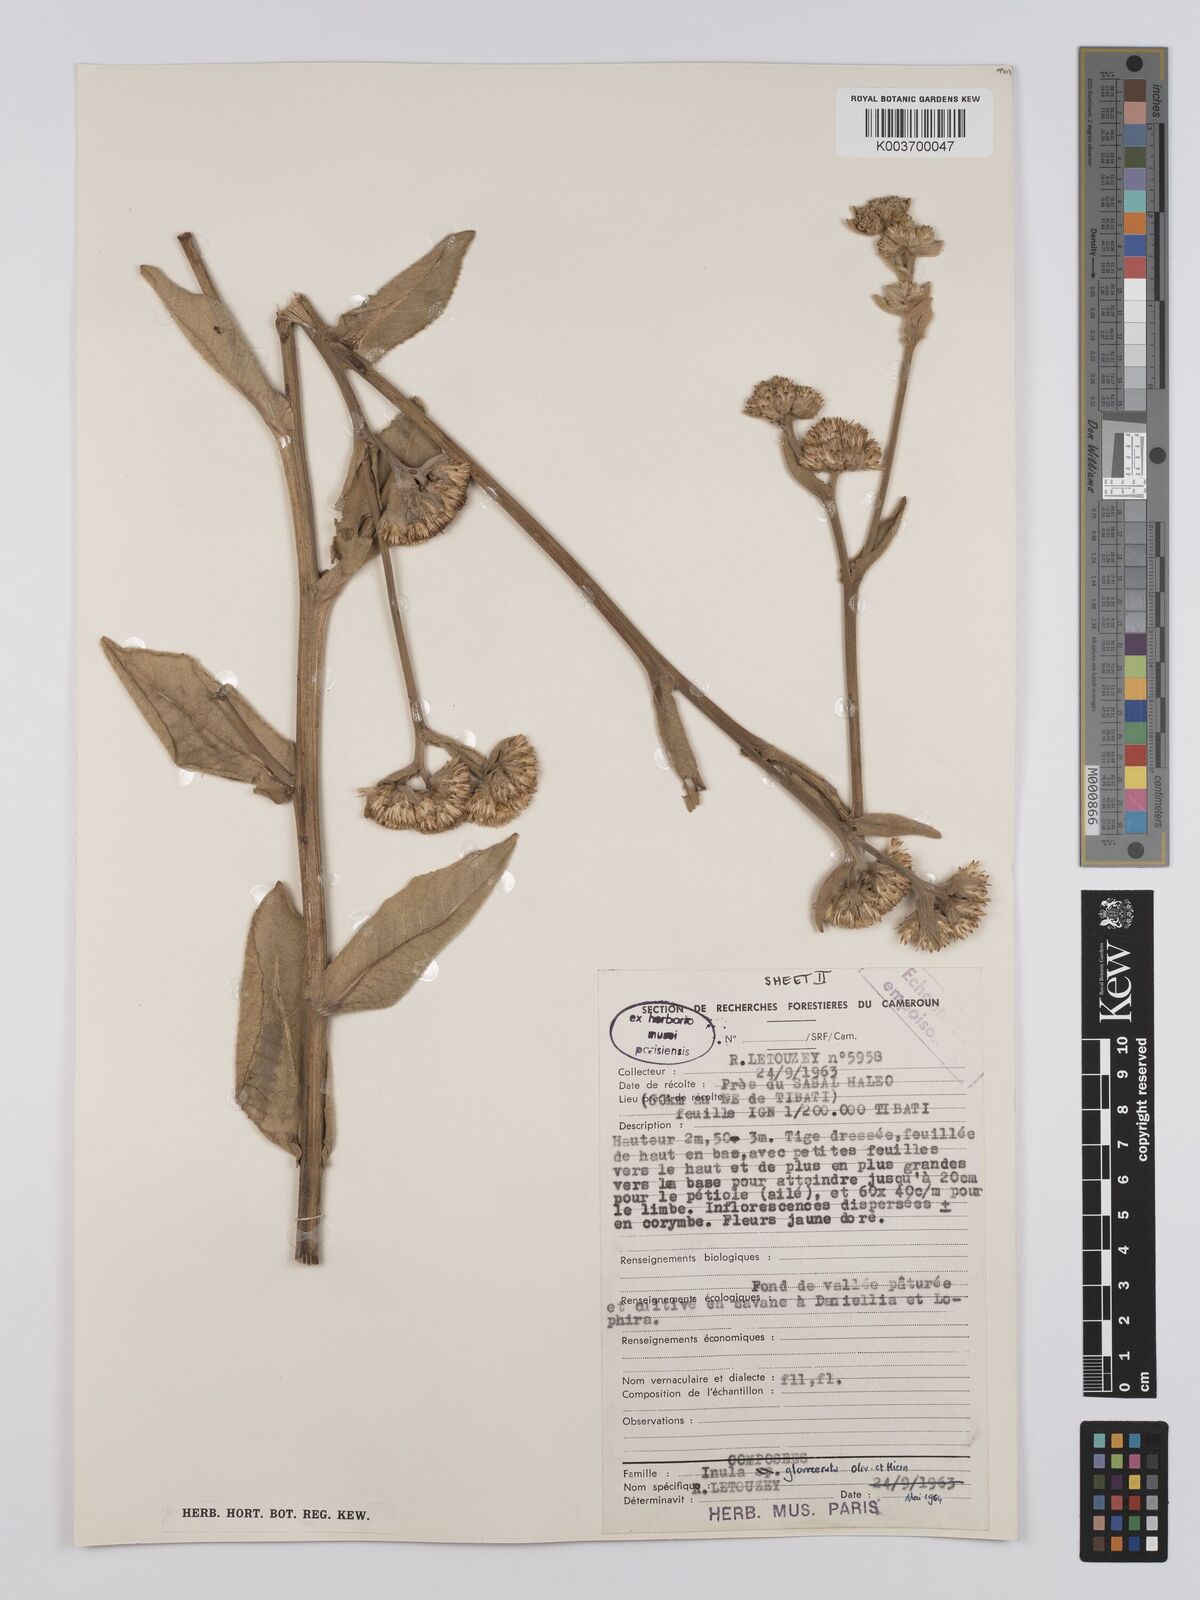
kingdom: Plantae
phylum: Tracheophyta
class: Magnoliopsida
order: Asterales
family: Asteraceae
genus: Inula
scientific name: Inula glomerata
